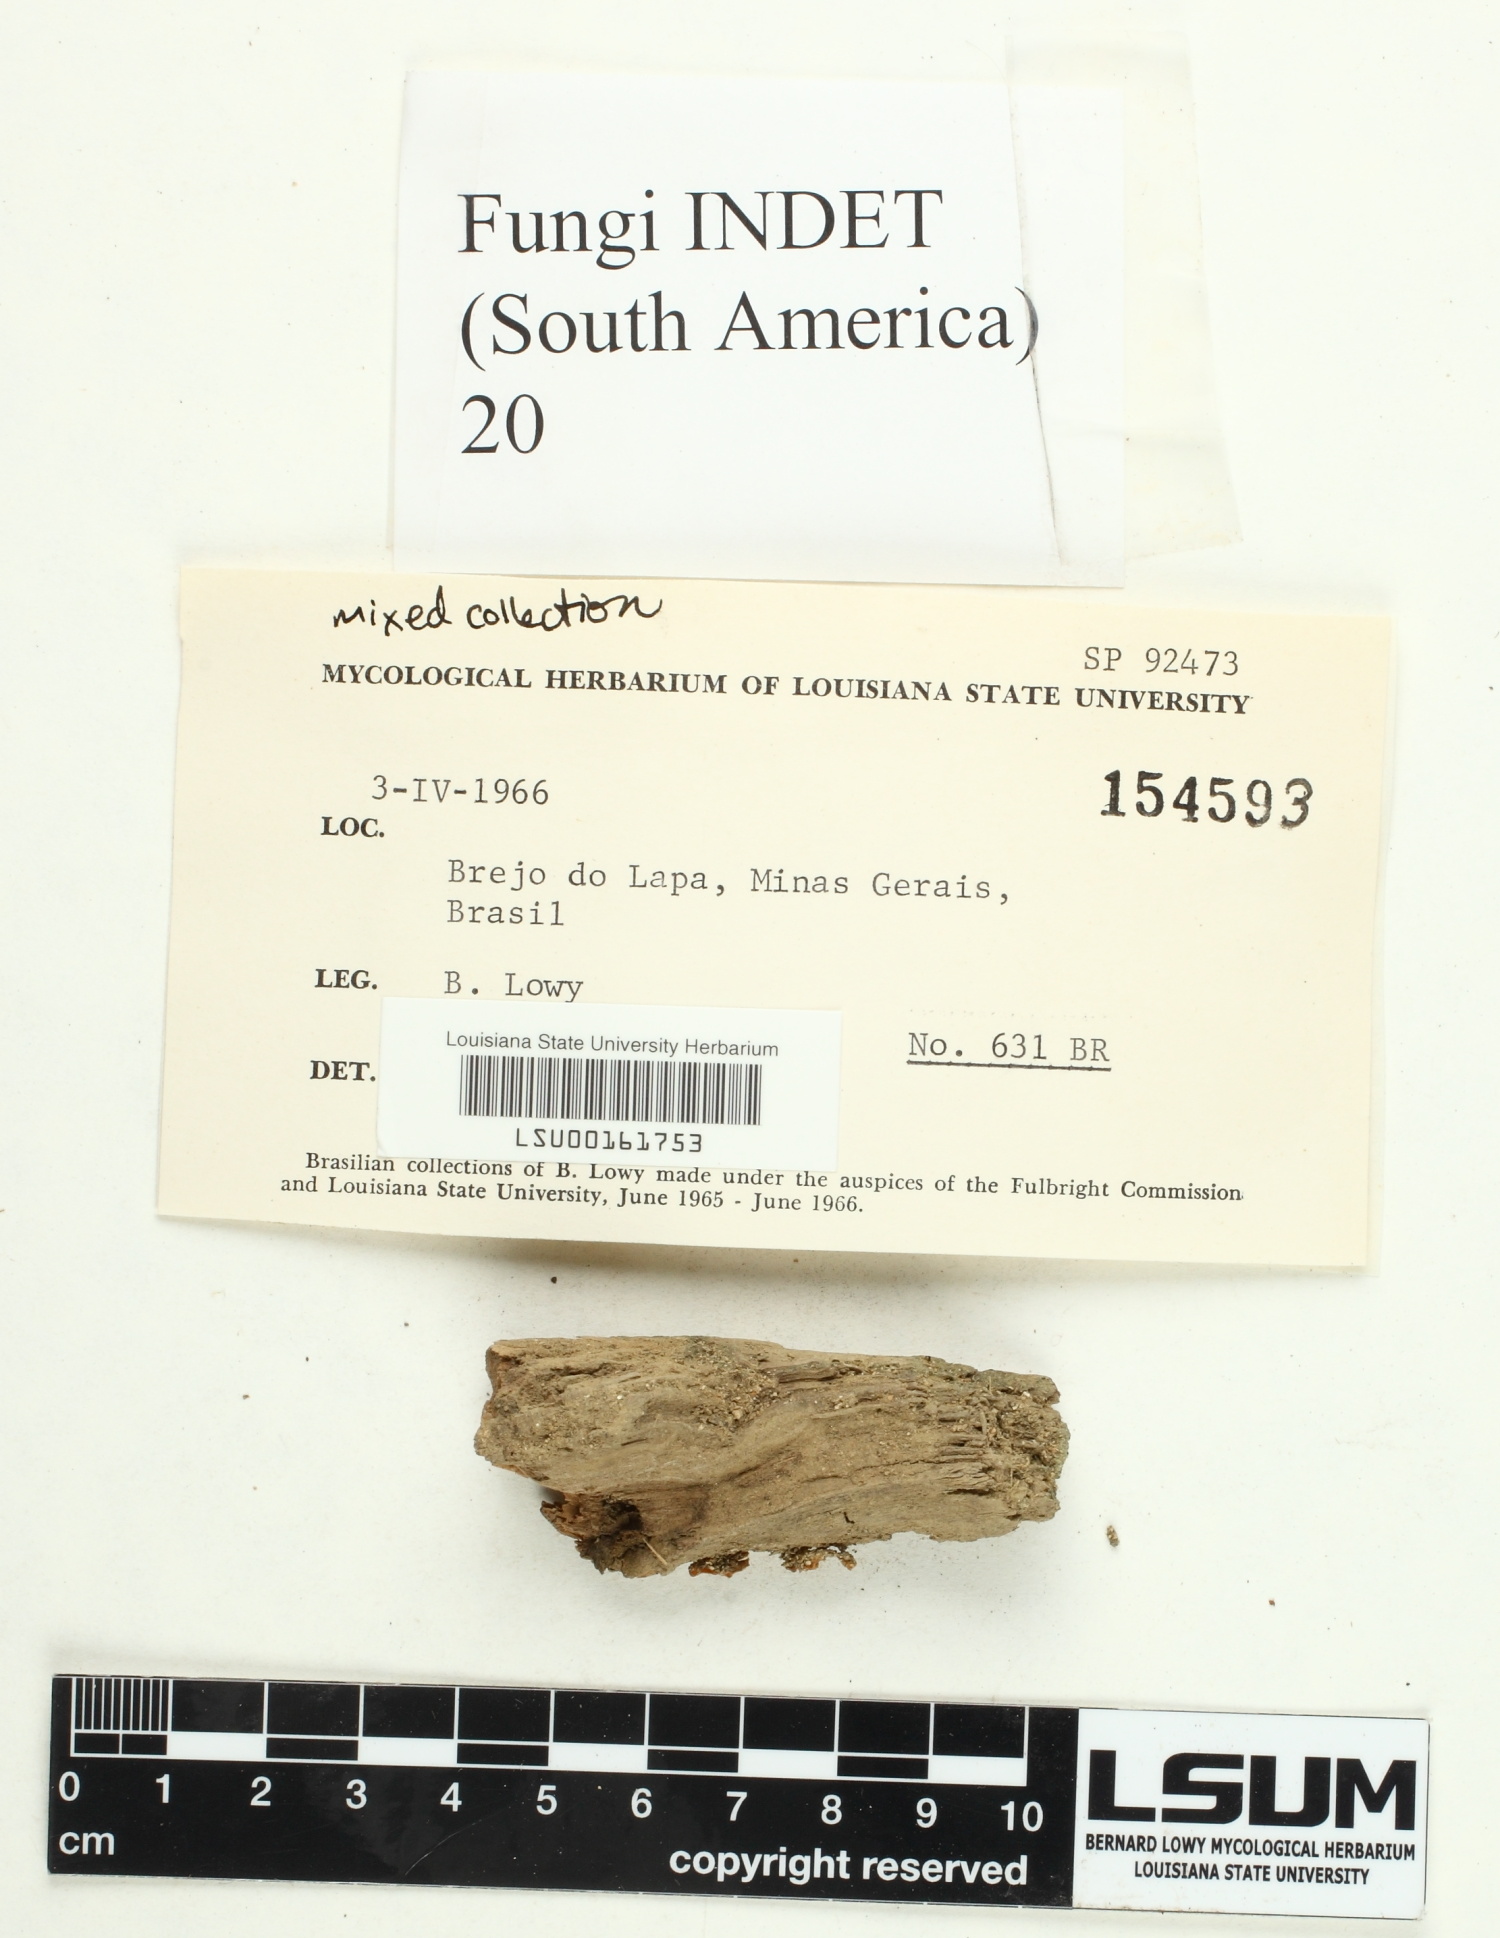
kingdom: Fungi
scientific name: Fungi
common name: Fungi
